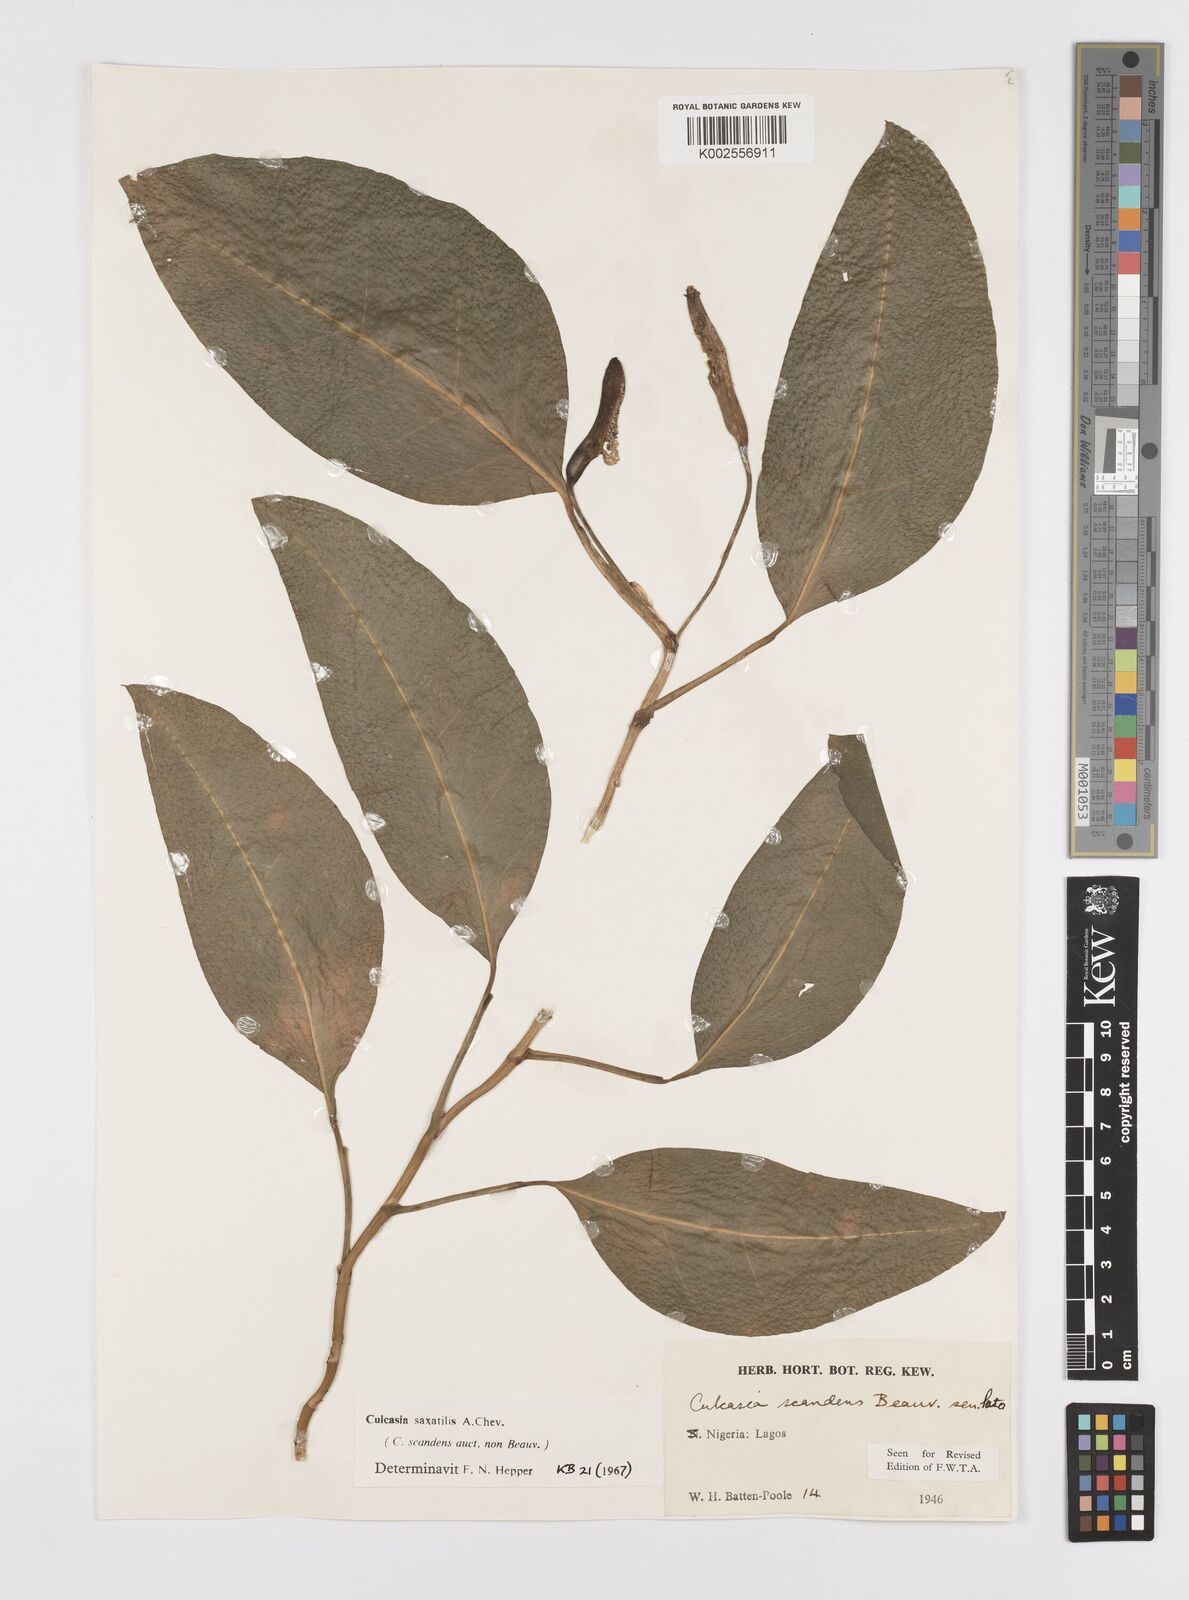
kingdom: Plantae
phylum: Tracheophyta
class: Liliopsida
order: Alismatales
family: Araceae
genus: Culcasia
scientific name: Culcasia scandens
